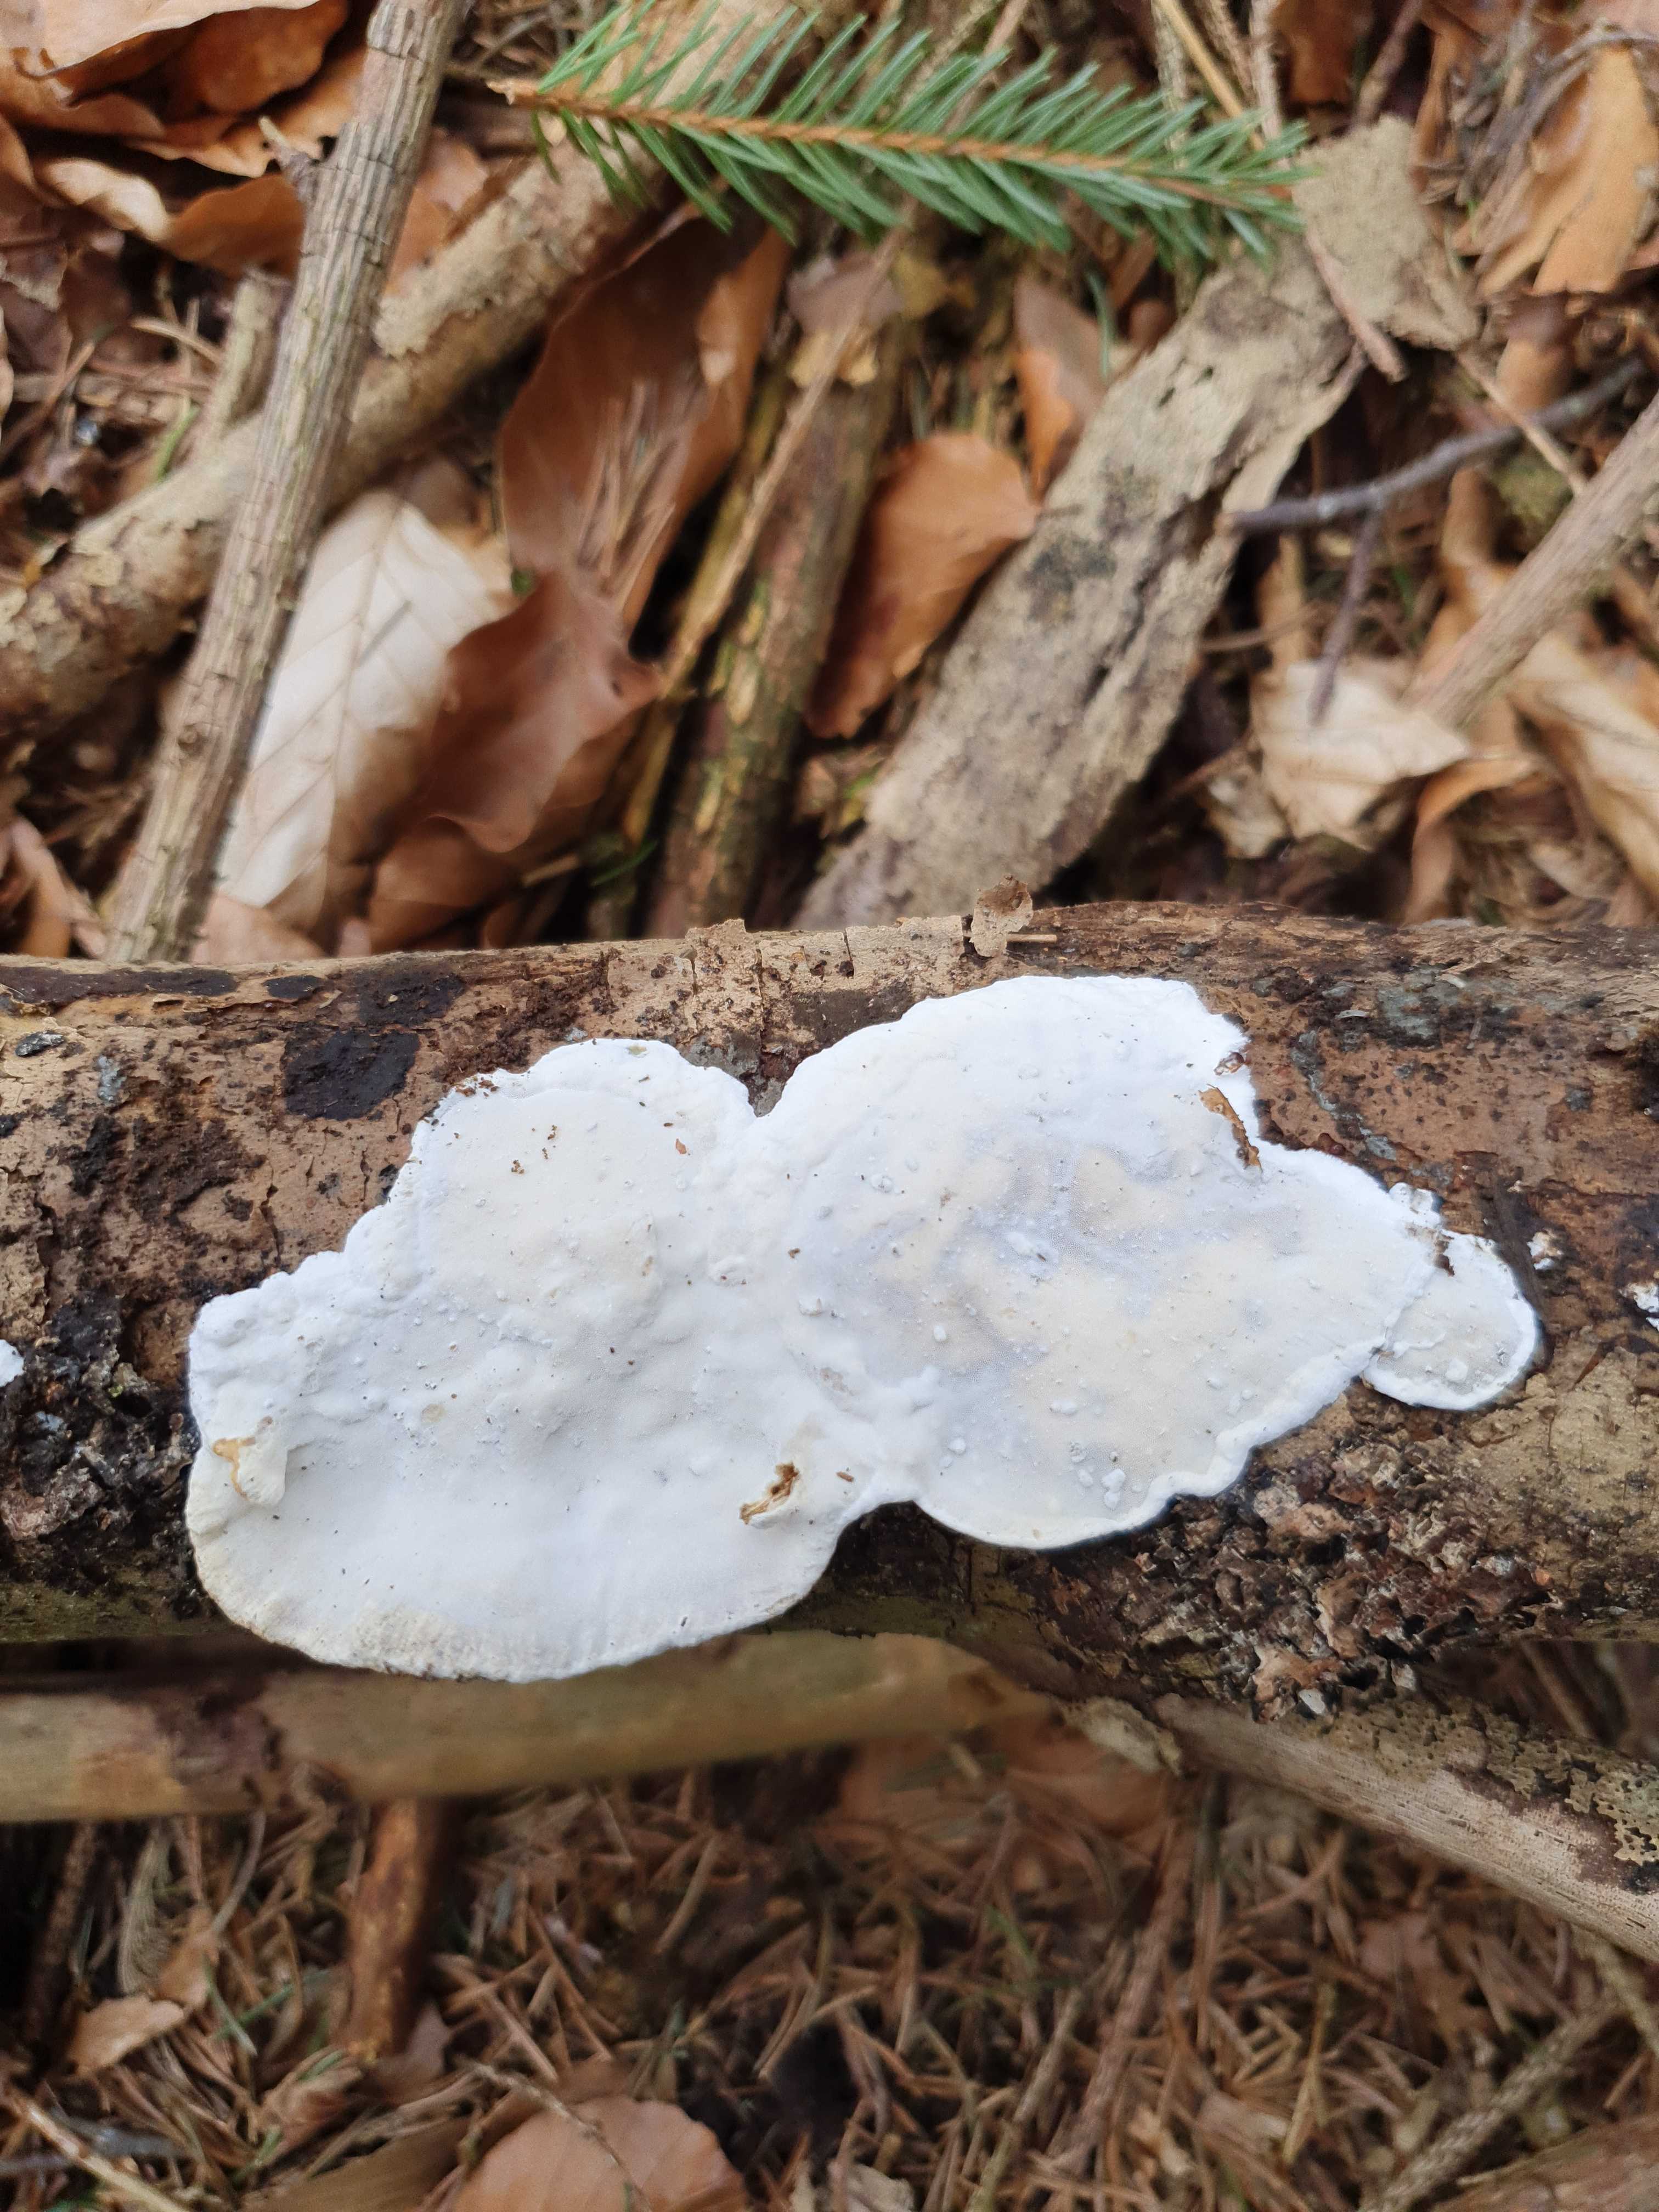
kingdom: Fungi
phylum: Basidiomycota
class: Agaricomycetes
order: Polyporales
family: Incrustoporiaceae
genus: Skeletocutis
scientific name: Skeletocutis nemoralis
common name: stor krystalporesvamp
